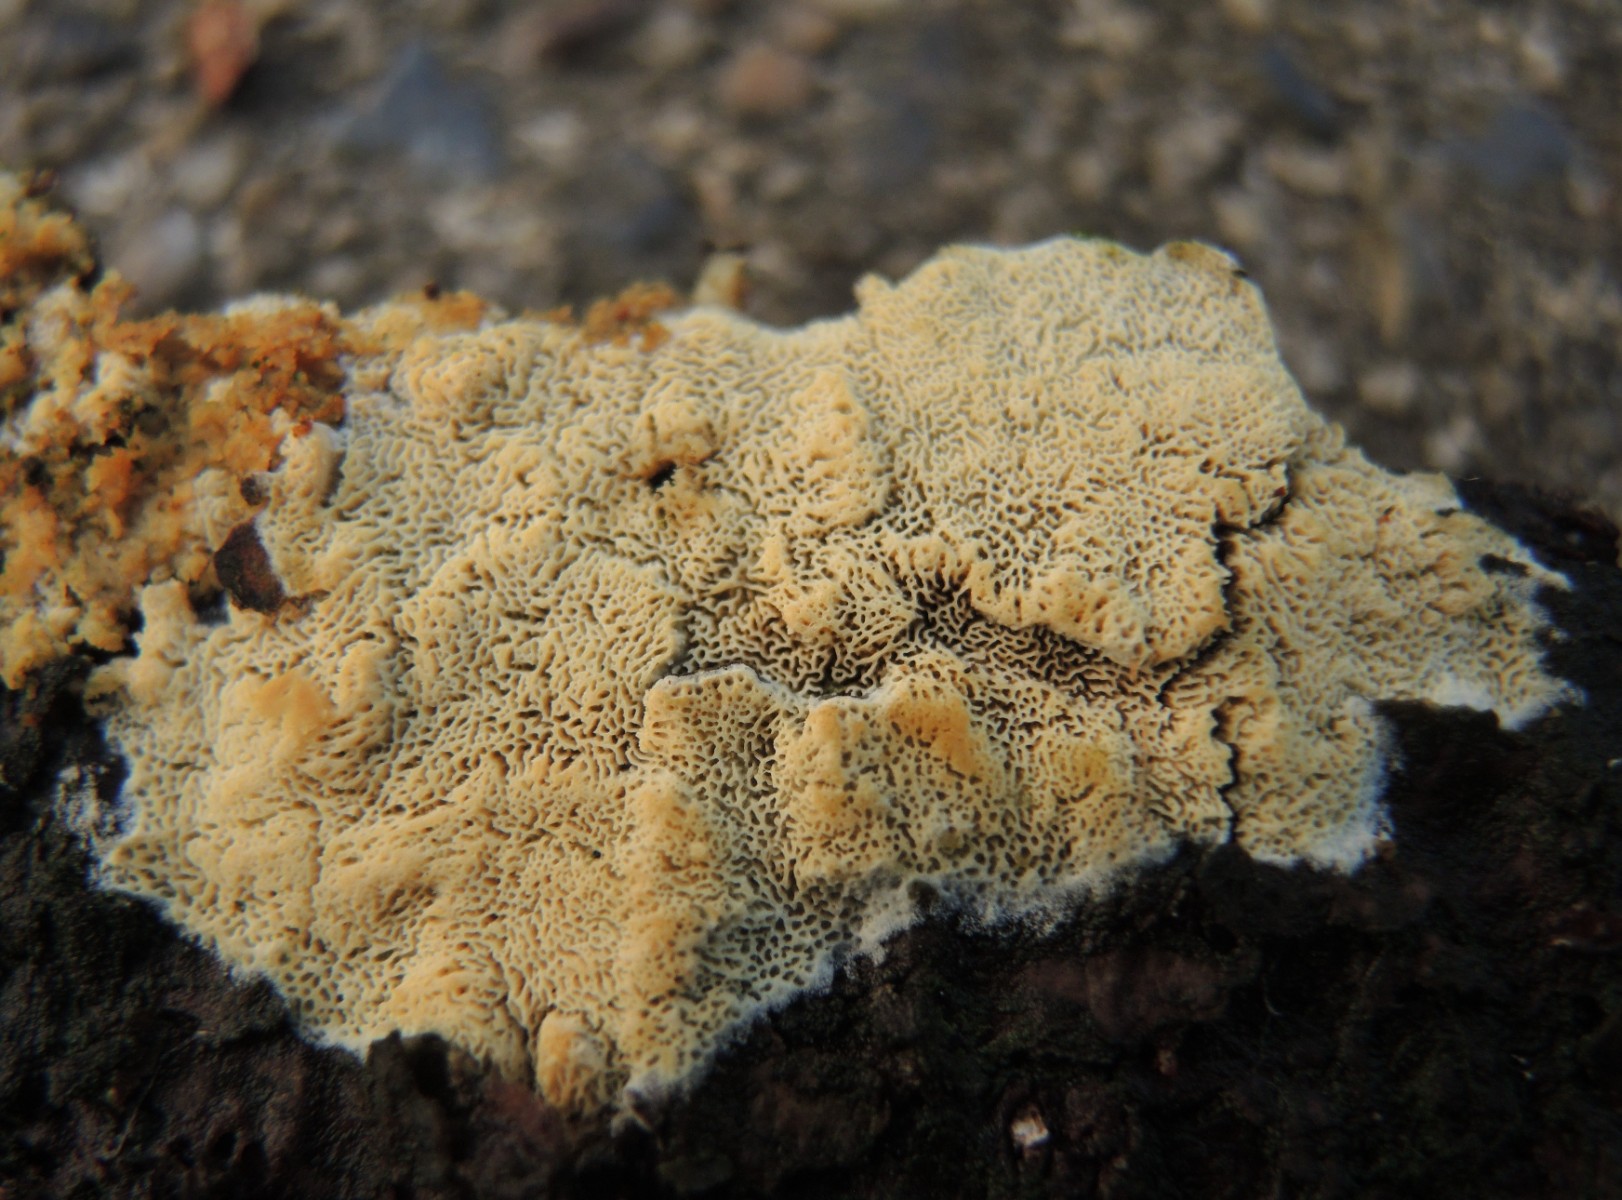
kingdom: Fungi
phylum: Basidiomycota
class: Agaricomycetes
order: Hymenochaetales
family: Schizoporaceae
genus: Xylodon
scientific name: Xylodon subtropicus
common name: labyrint-tandsvamp
